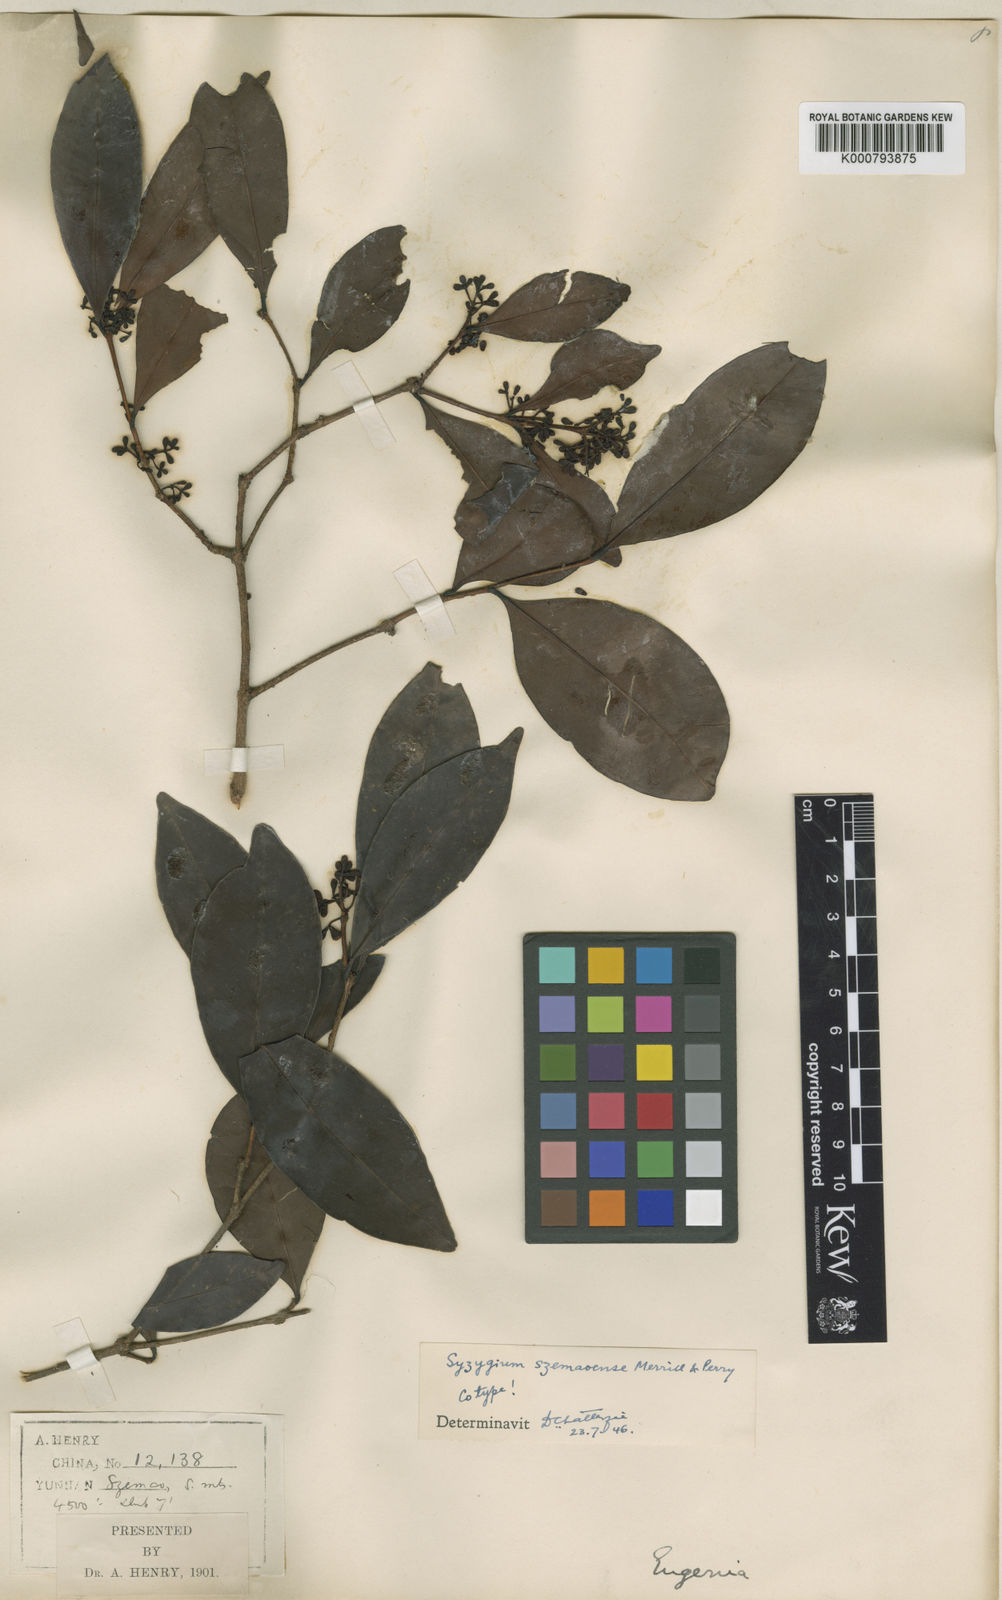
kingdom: Plantae
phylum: Tracheophyta
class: Magnoliopsida
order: Myrtales
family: Myrtaceae
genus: Syzygium
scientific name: Syzygium szemaoense
